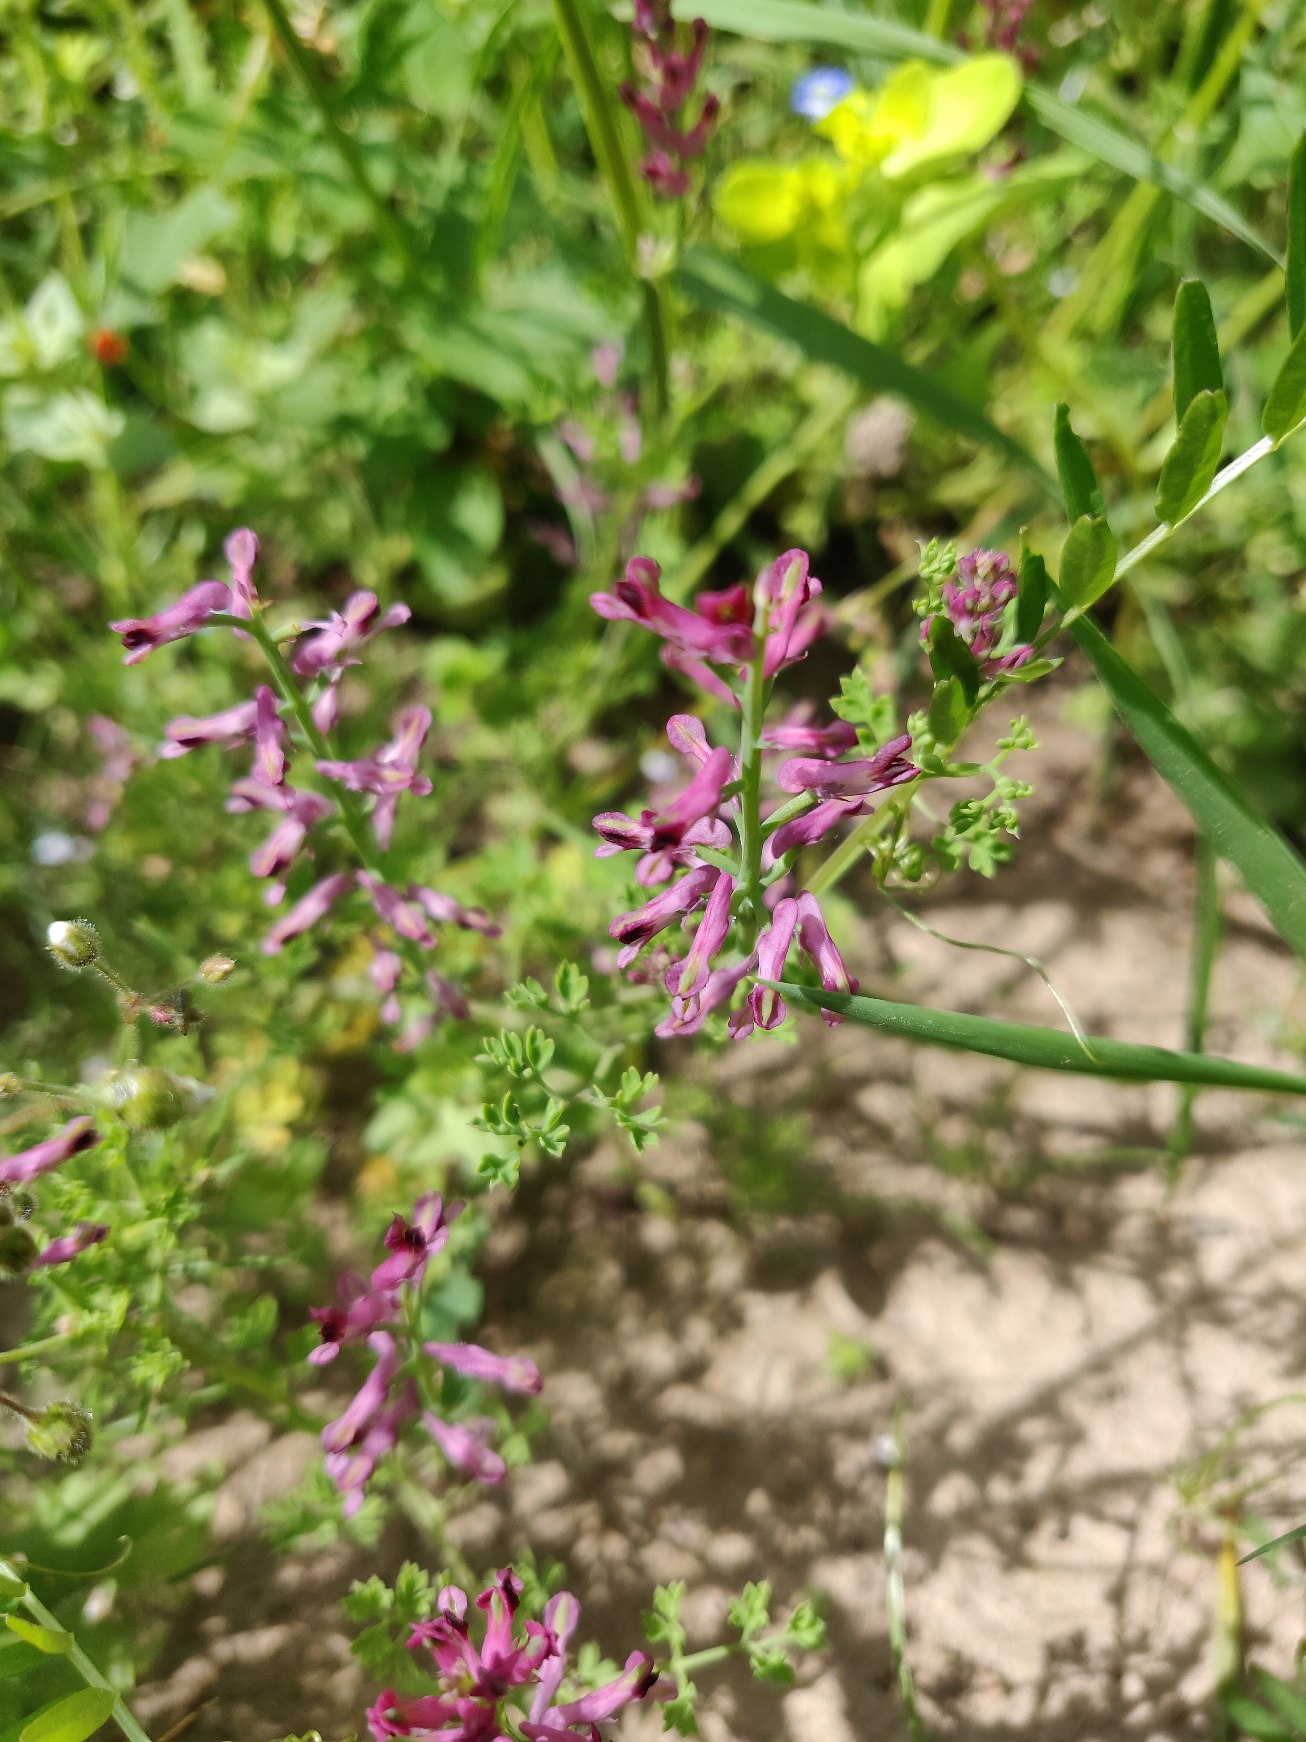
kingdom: Plantae
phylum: Tracheophyta
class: Magnoliopsida
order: Ranunculales
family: Papaveraceae
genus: Fumaria
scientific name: Fumaria officinalis
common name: Læge-jordrøg
